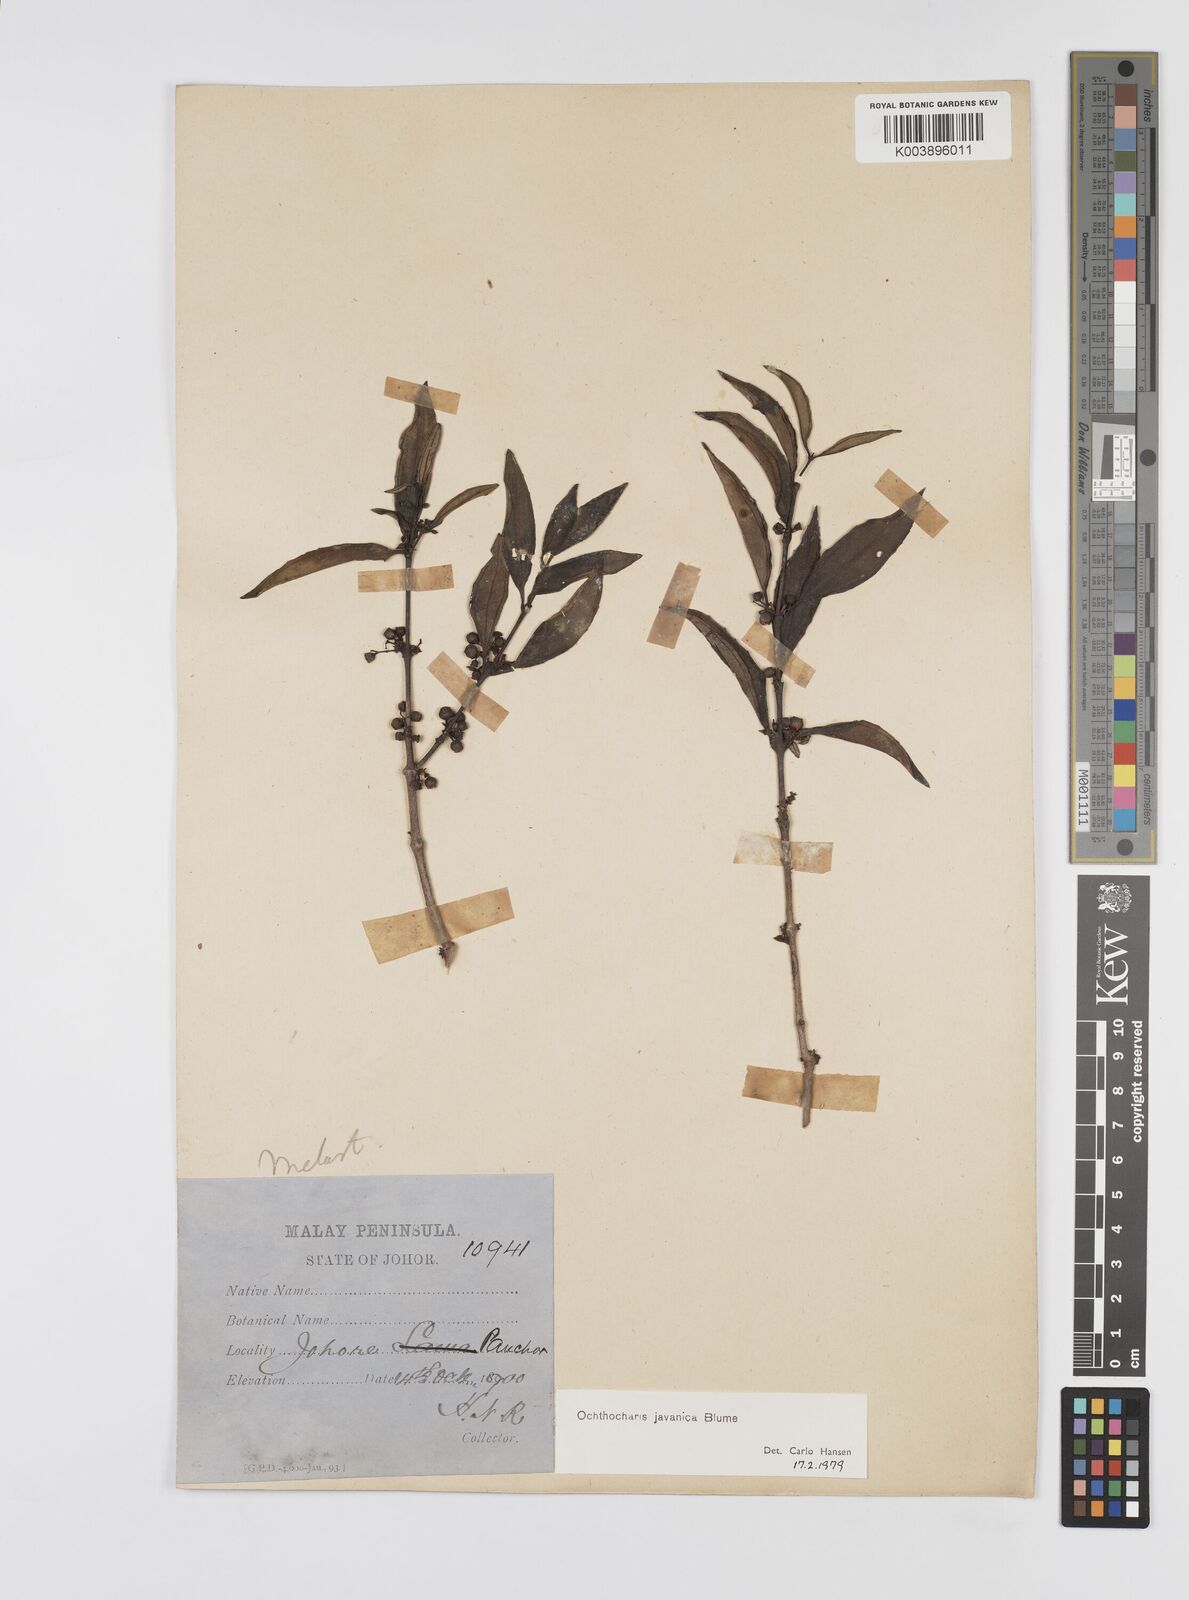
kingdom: Plantae
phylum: Tracheophyta
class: Magnoliopsida
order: Myrtales
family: Melastomataceae
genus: Ochthocharis
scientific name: Ochthocharis javanica
